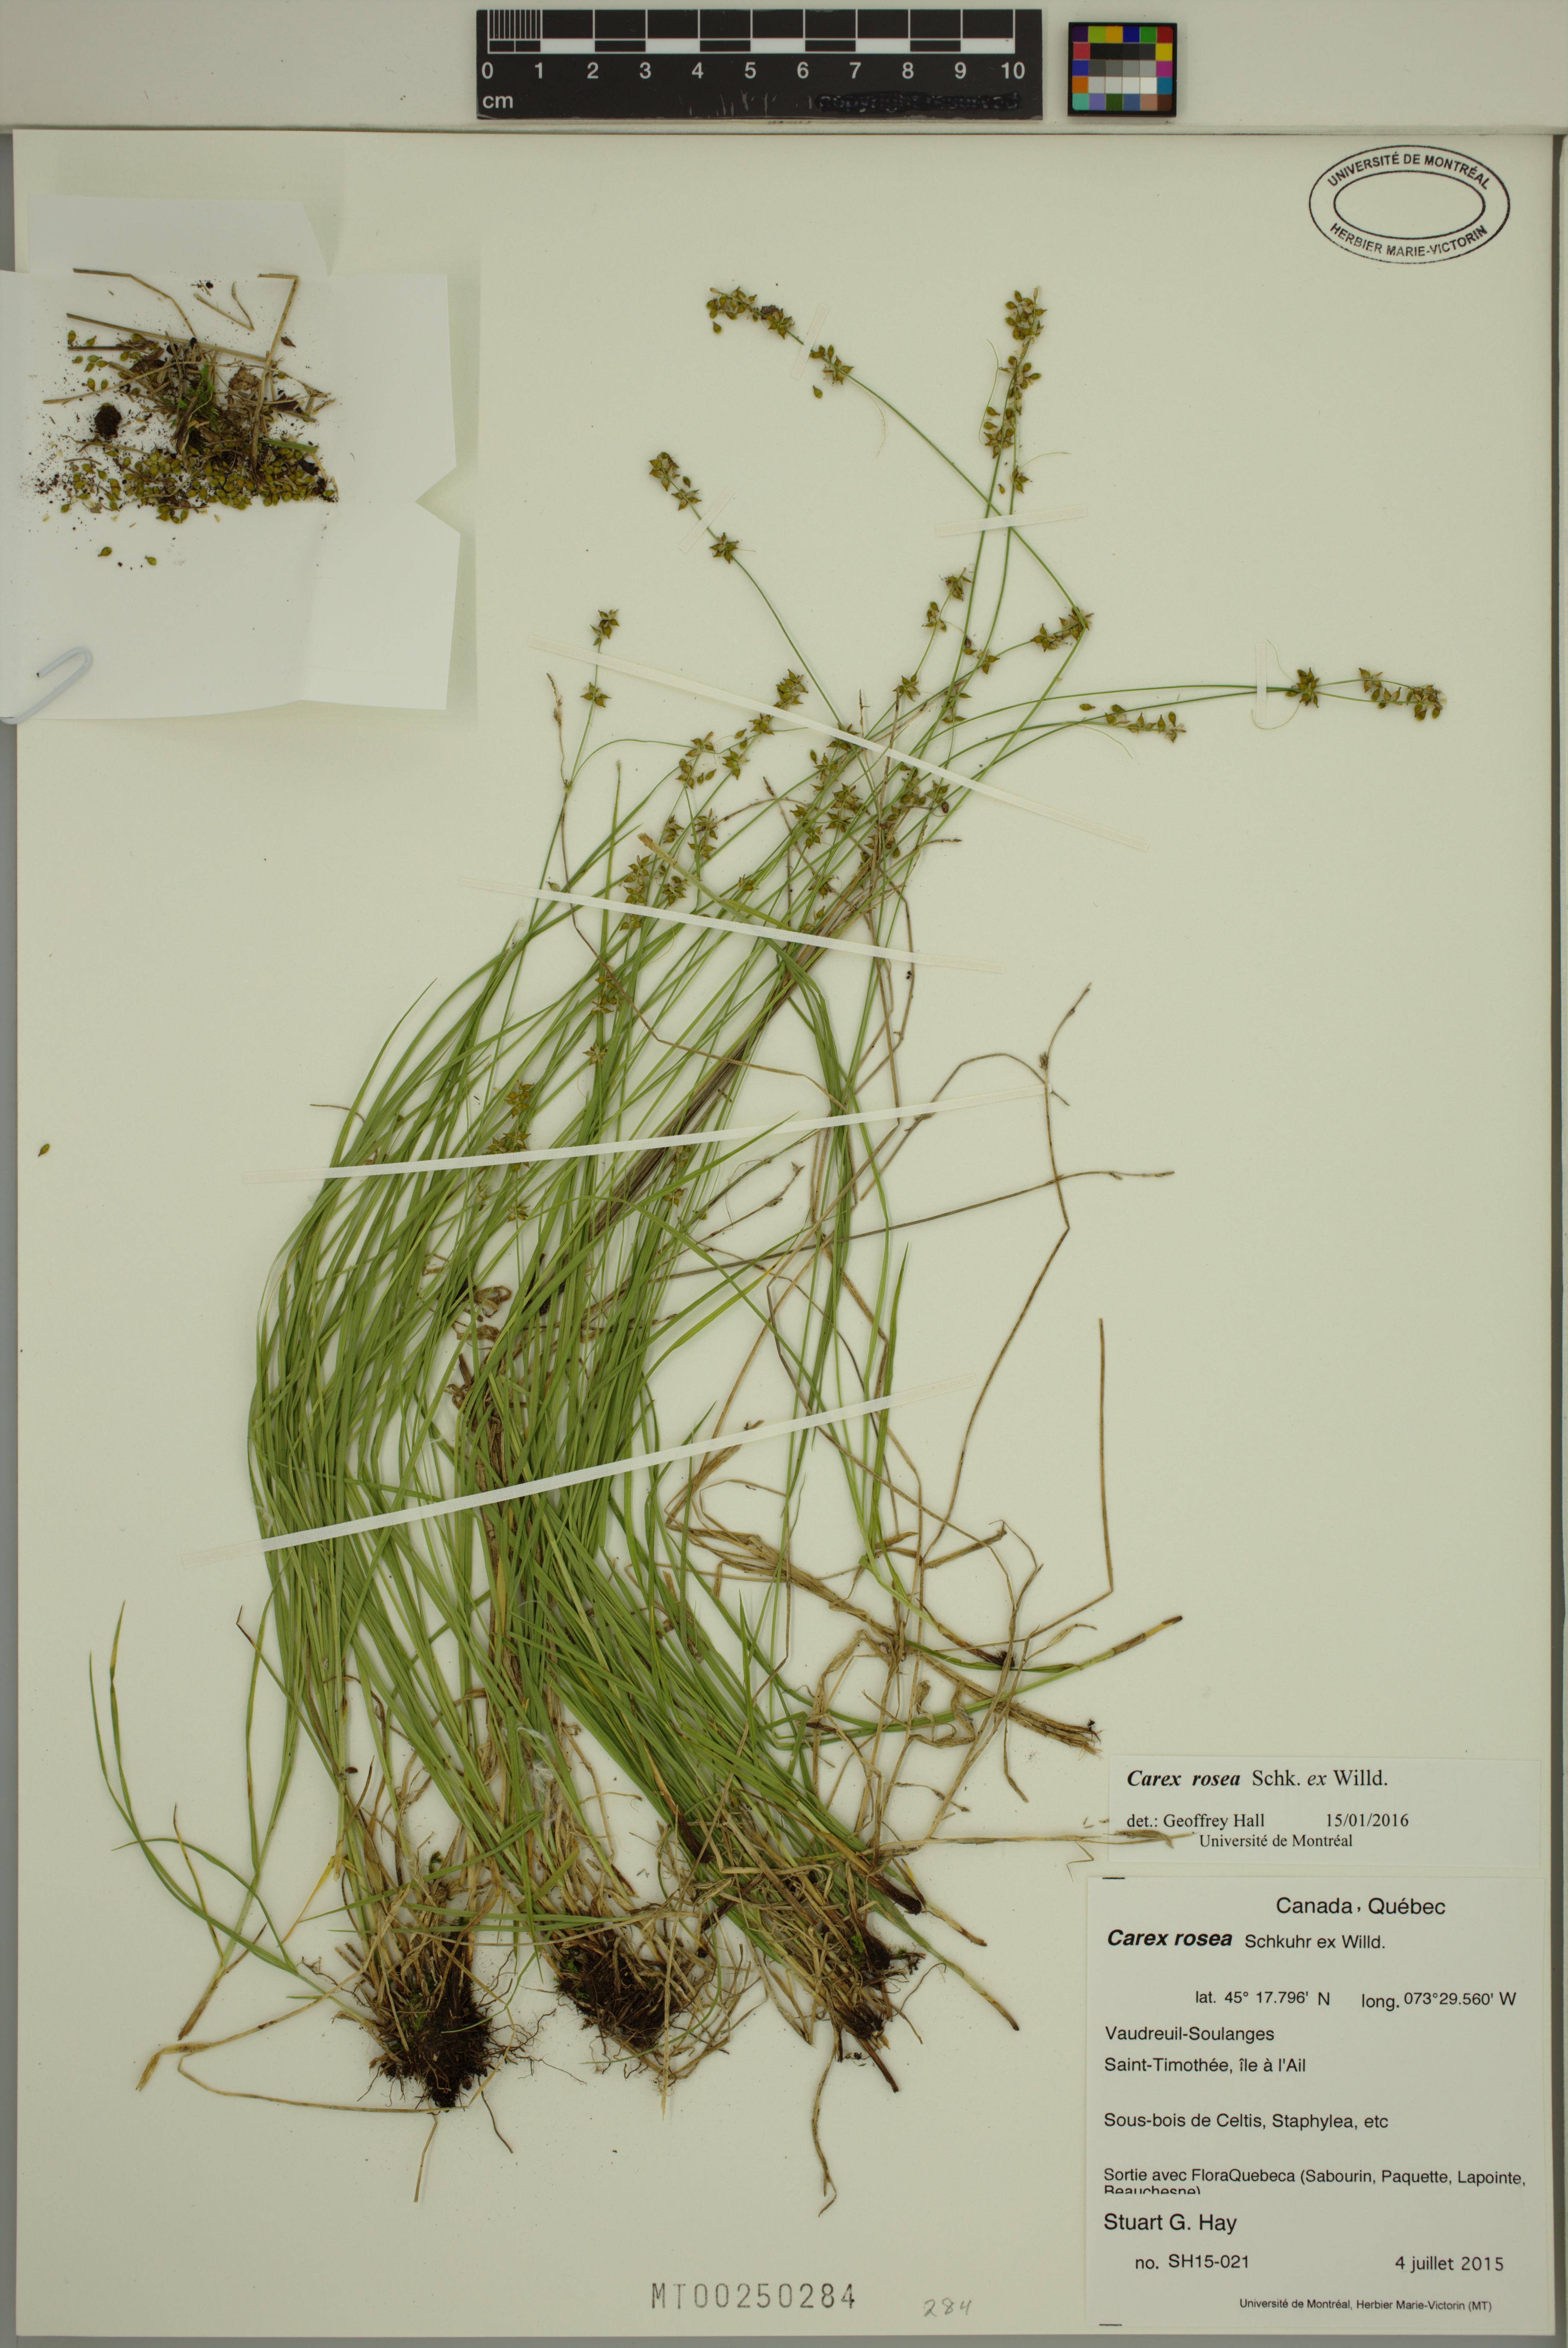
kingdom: Plantae
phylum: Tracheophyta
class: Liliopsida
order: Poales
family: Cyperaceae
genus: Carex
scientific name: Carex rosea
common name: Curly-styled wood sedge
